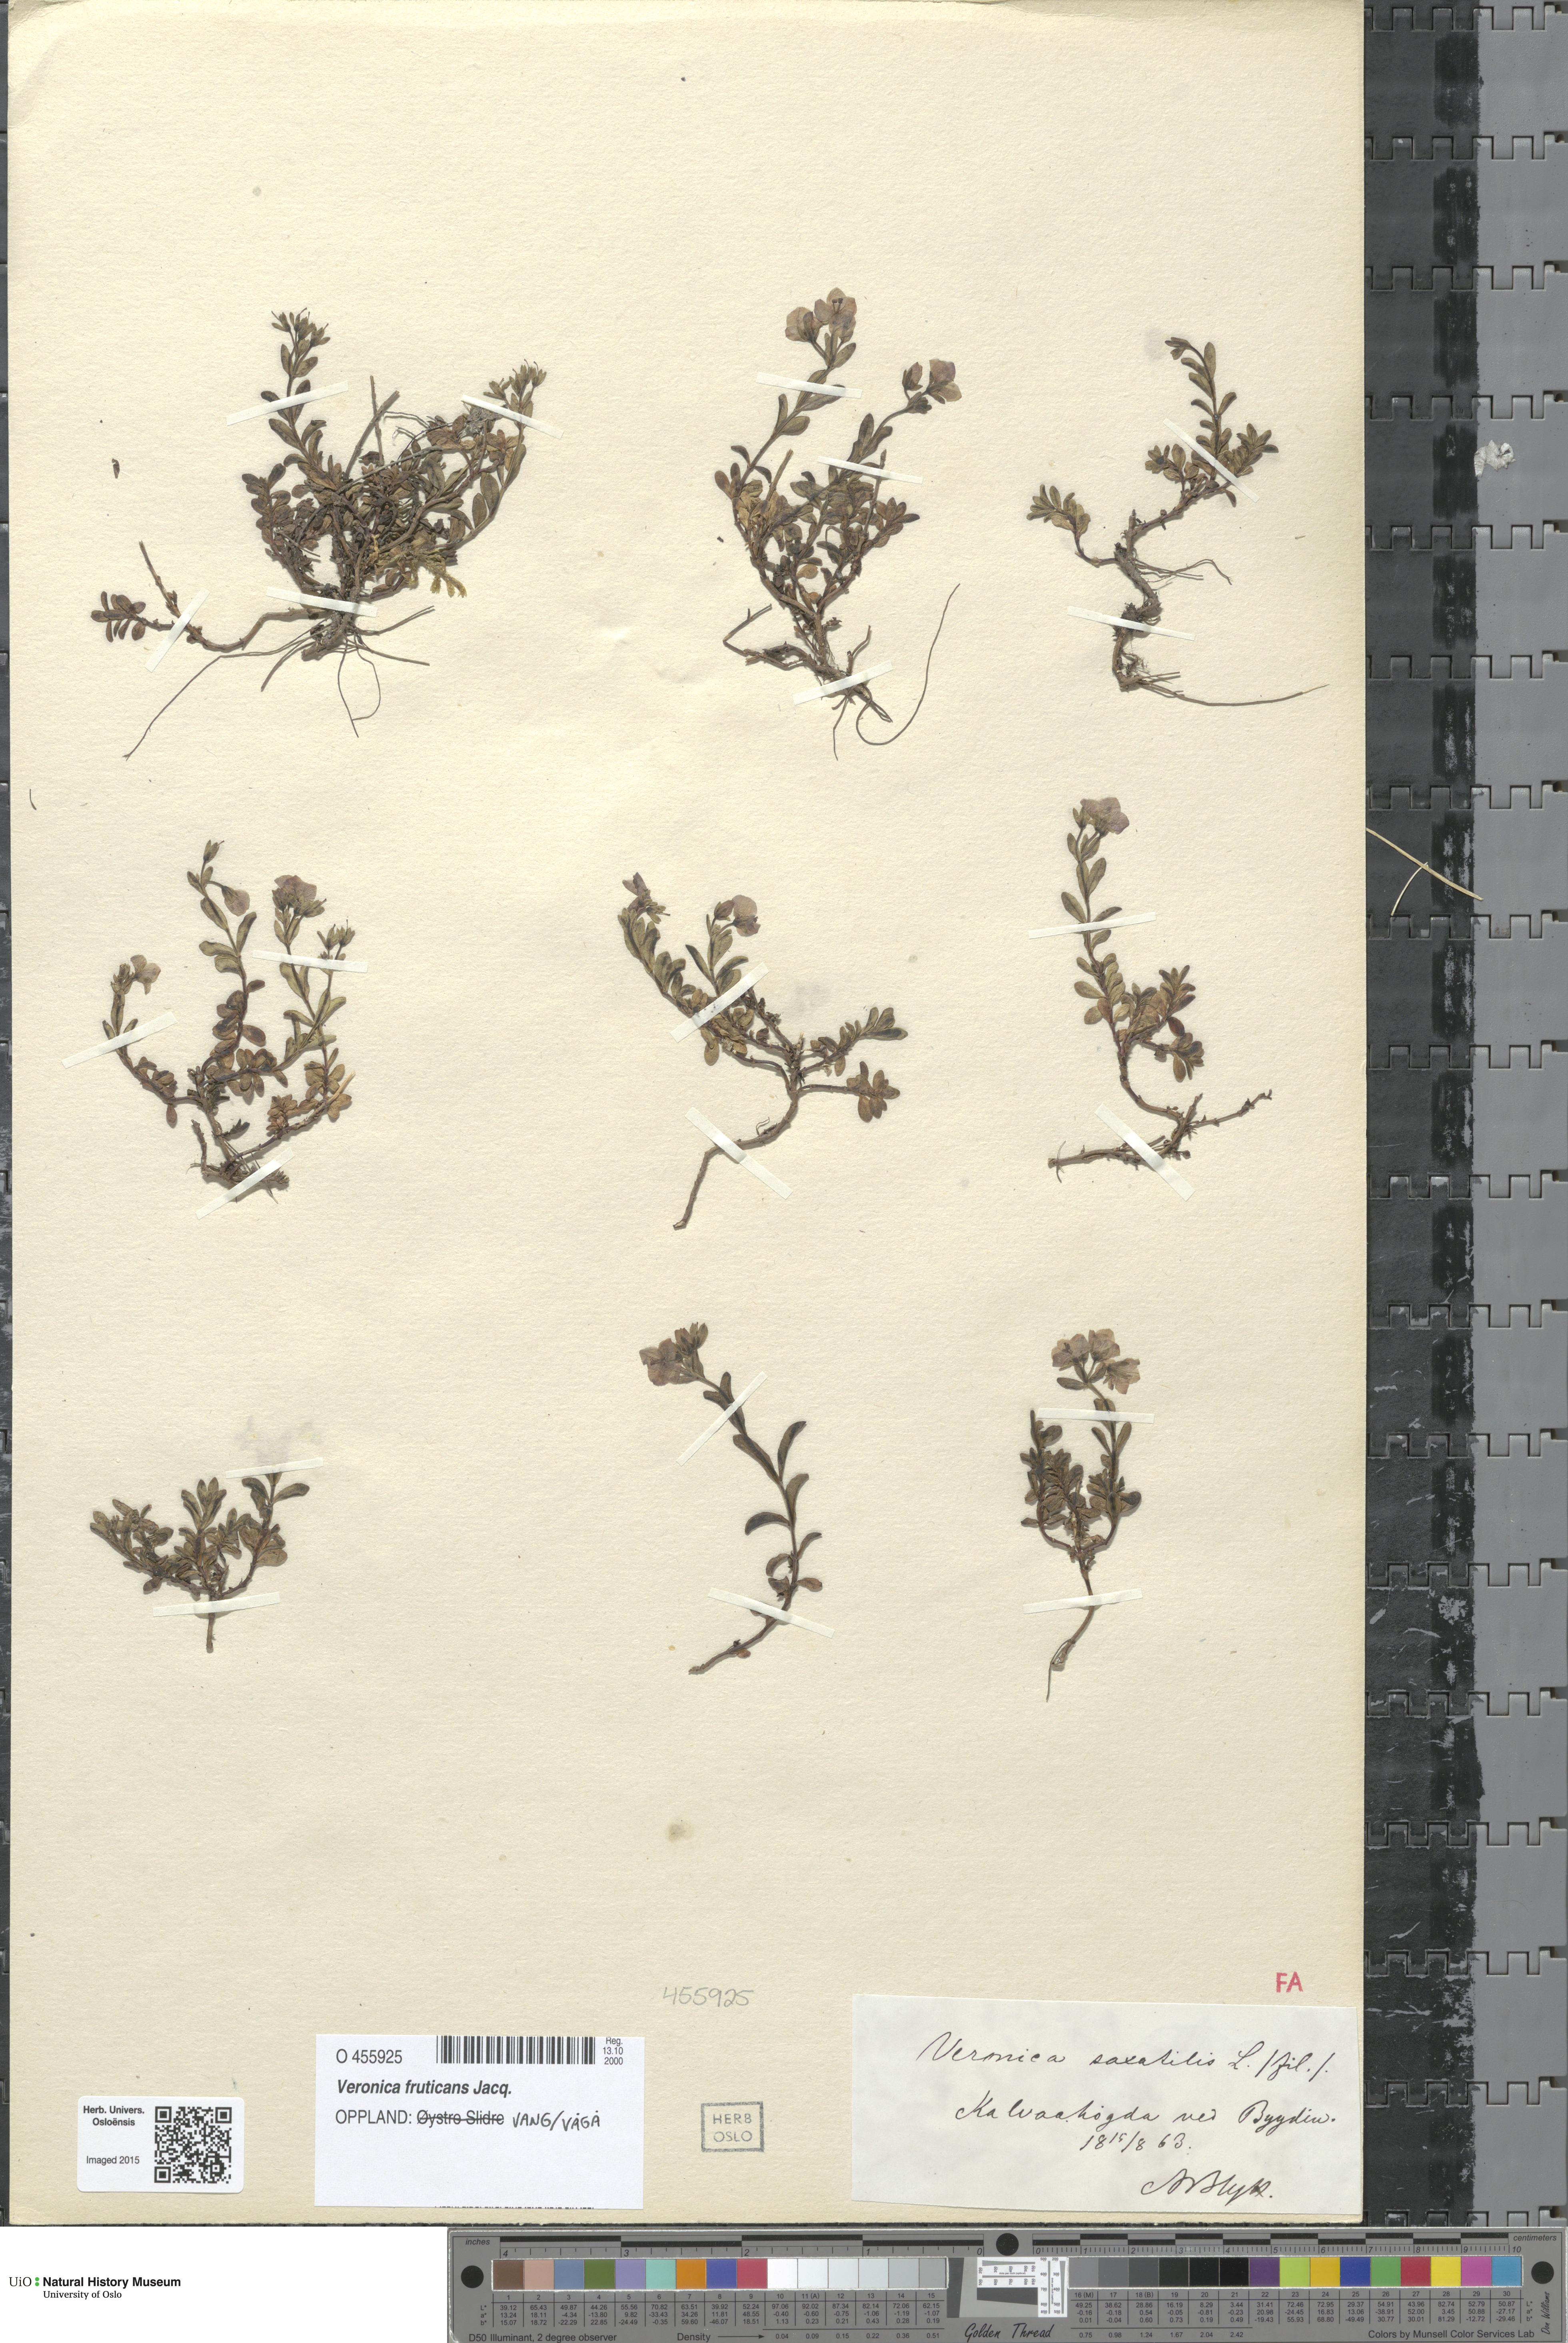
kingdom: Plantae
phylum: Tracheophyta
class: Magnoliopsida
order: Lamiales
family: Plantaginaceae
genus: Veronica
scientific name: Veronica fruticans
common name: Rock speedwell
